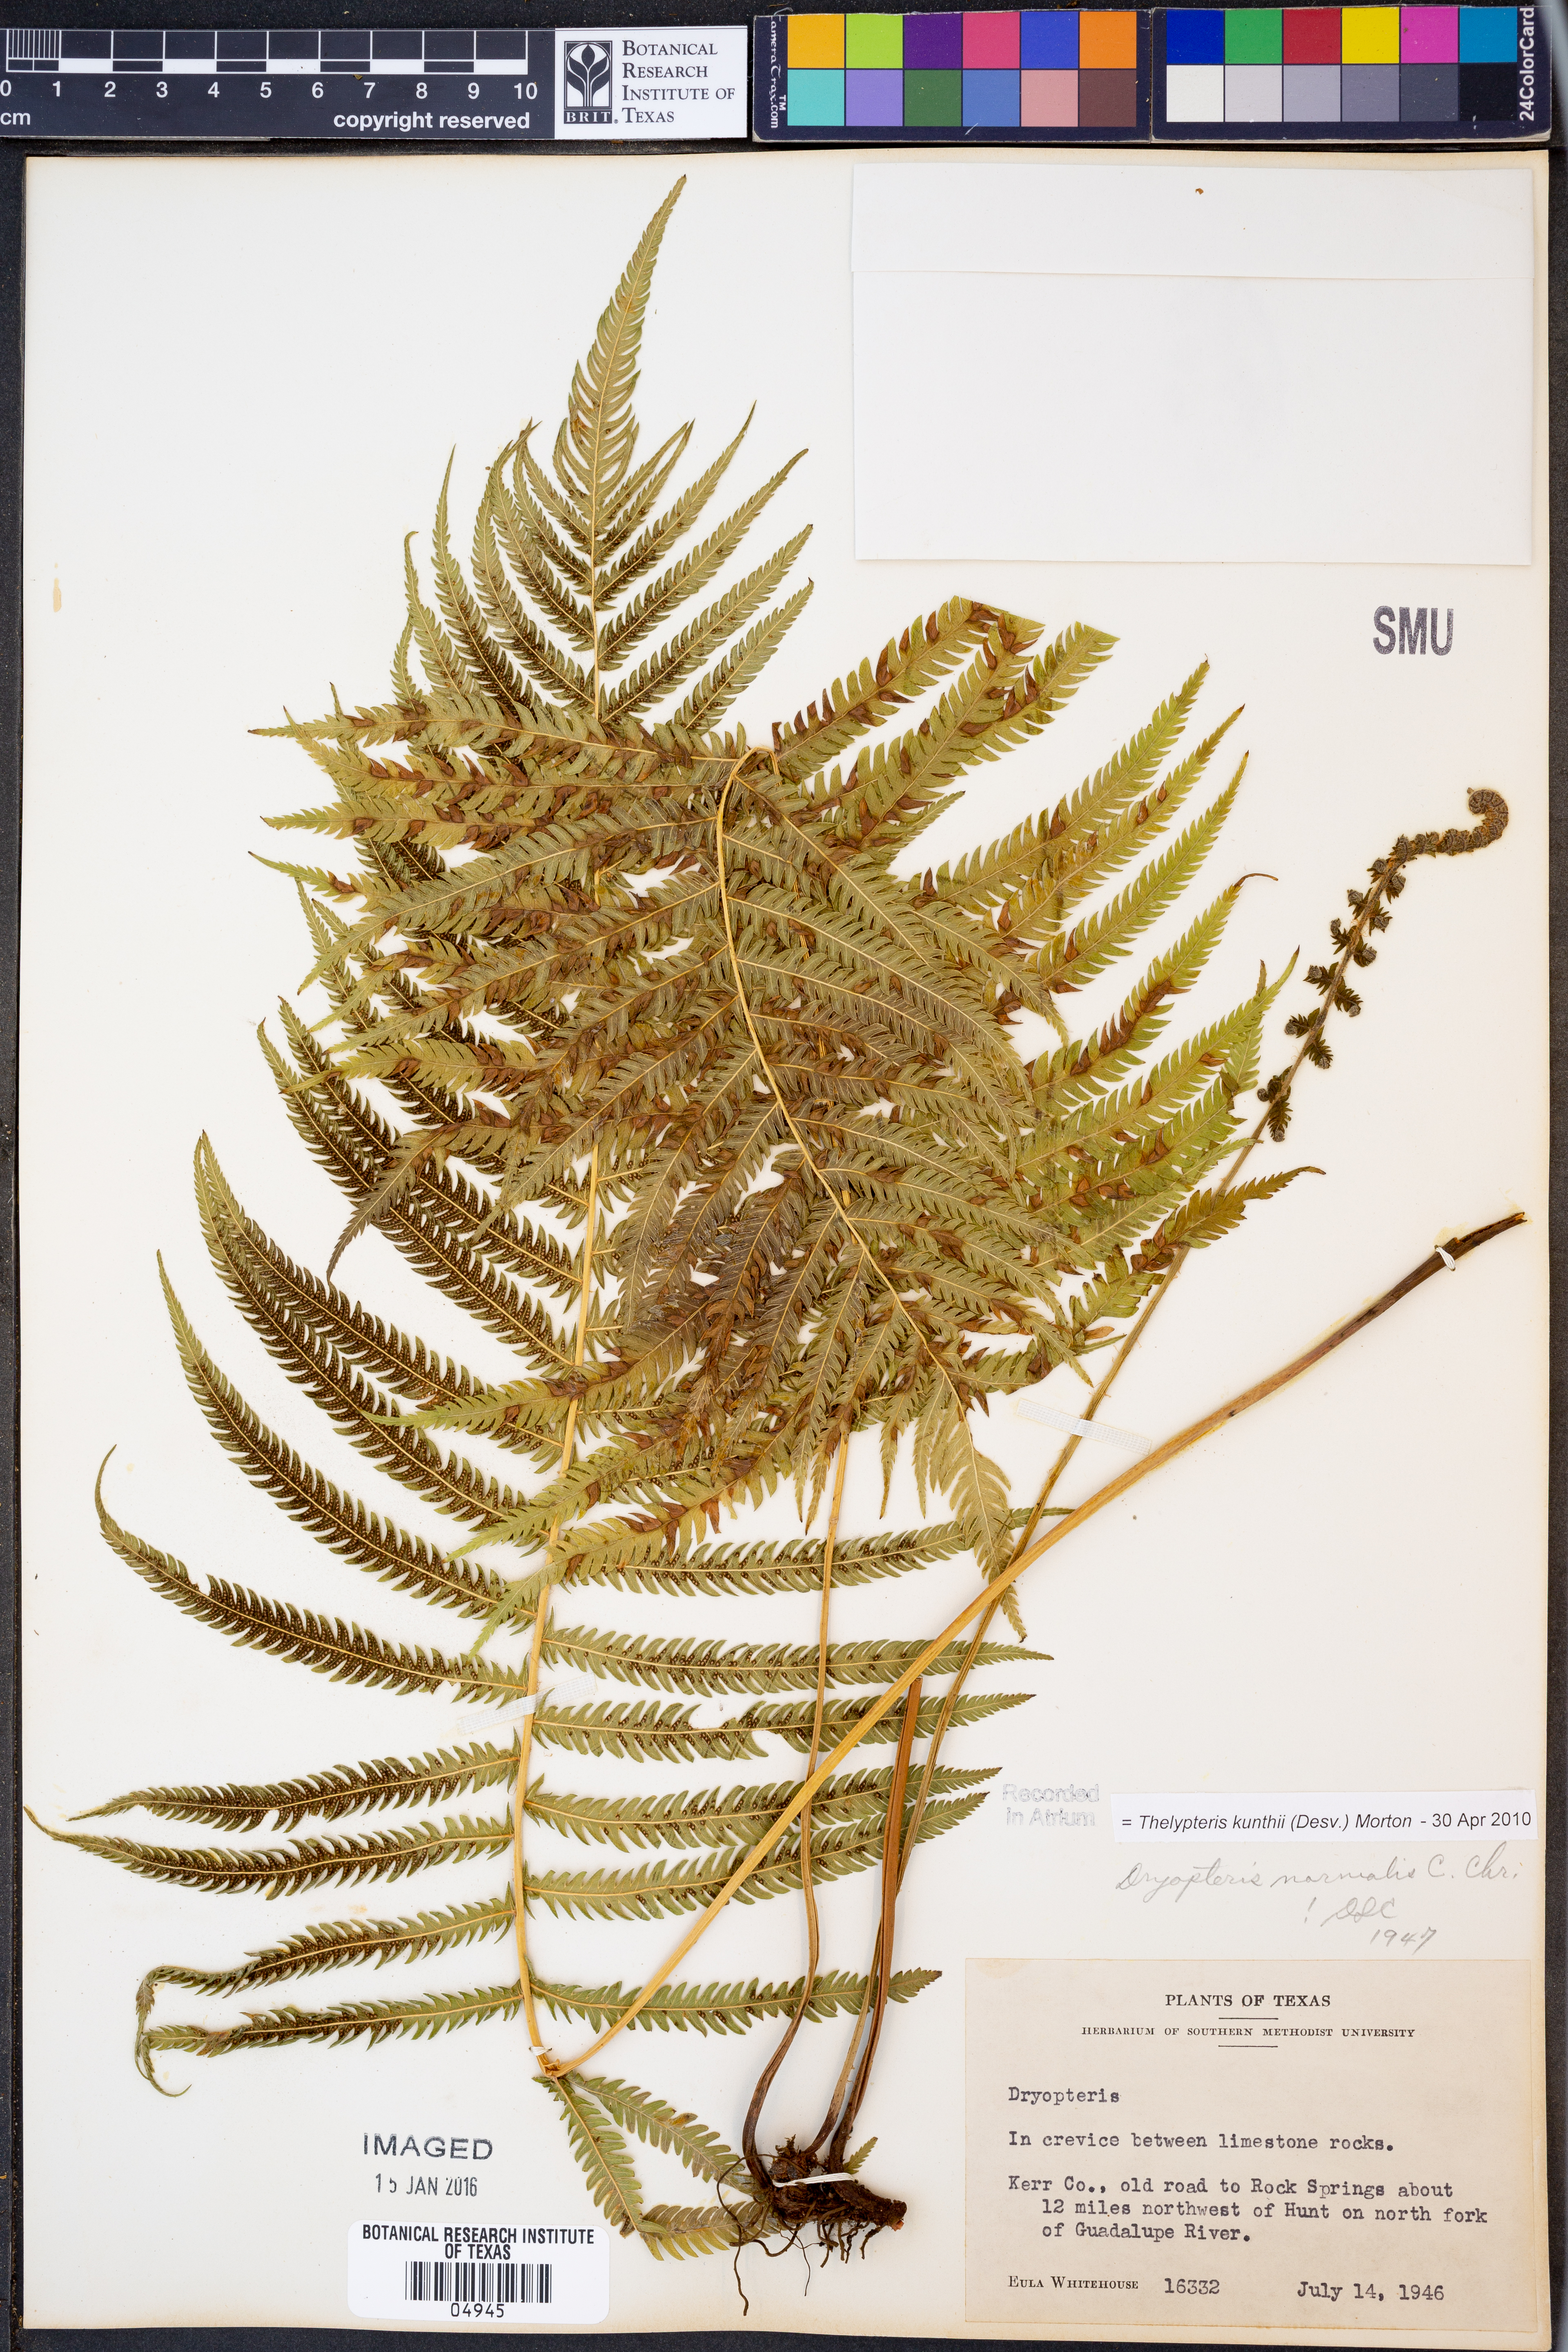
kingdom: Plantae
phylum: Tracheophyta
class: Polypodiopsida
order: Polypodiales
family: Thelypteridaceae
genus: Pelazoneuron
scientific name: Pelazoneuron kunthii
